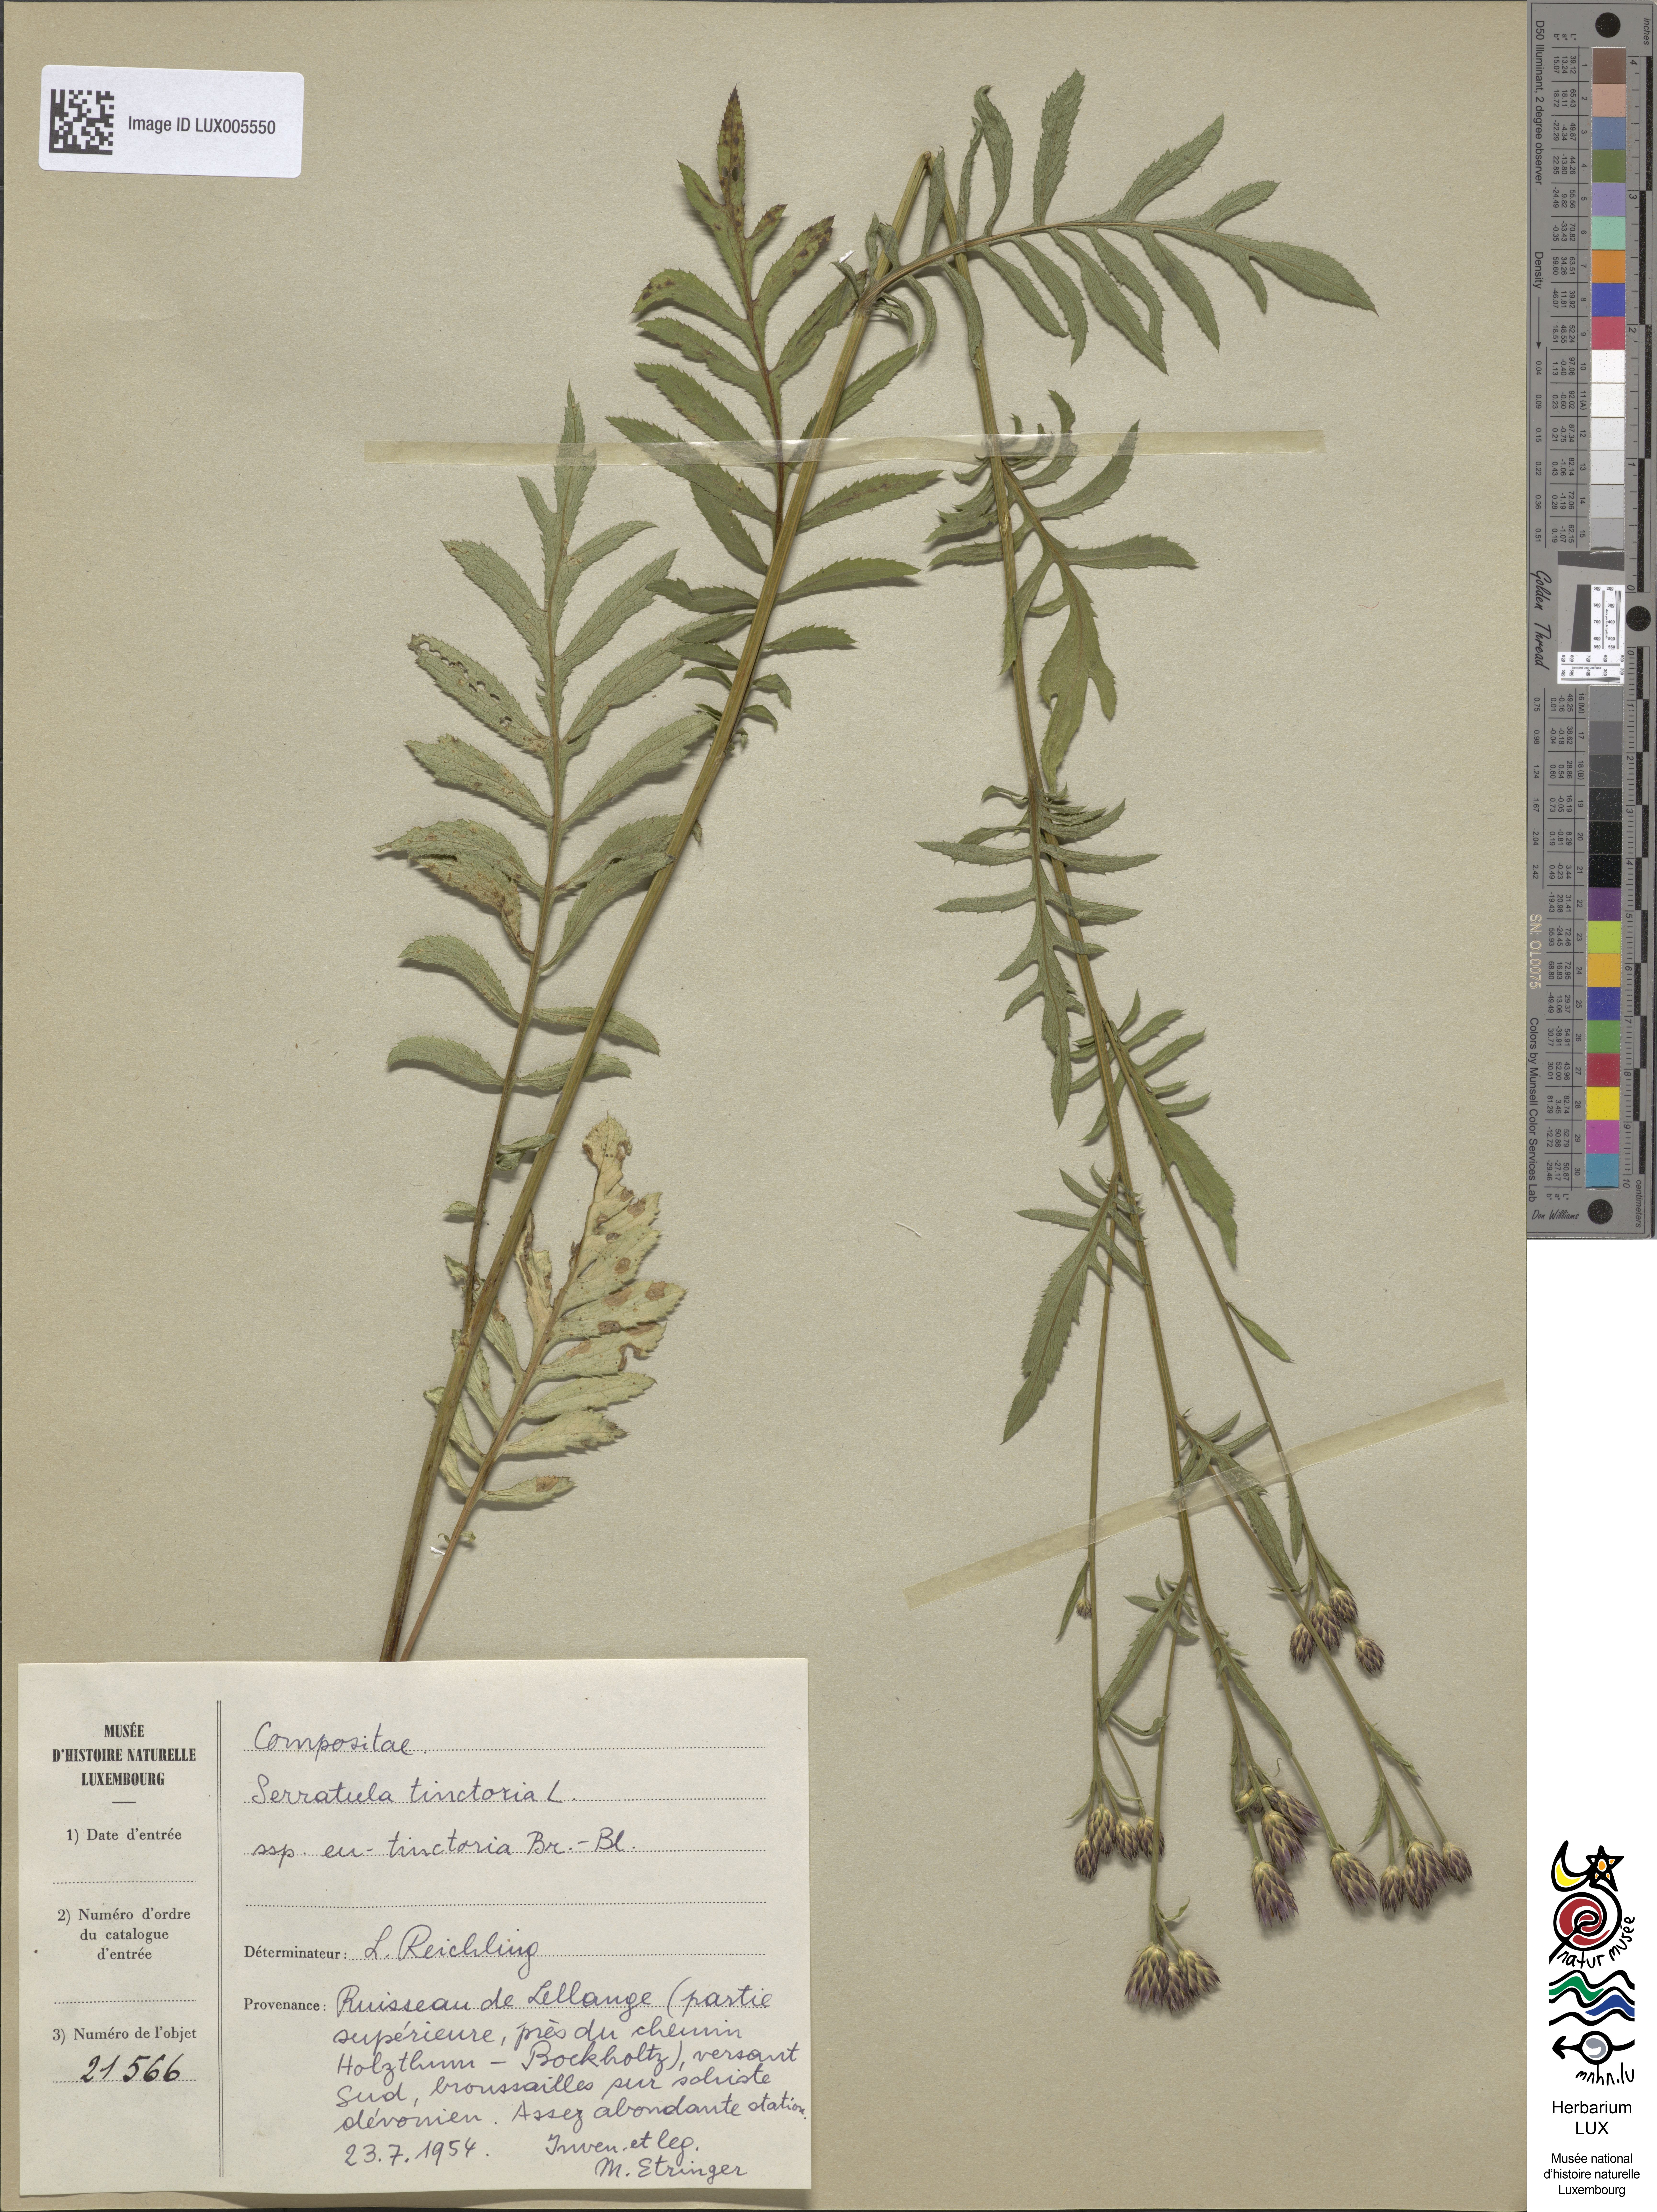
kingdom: Plantae
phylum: Tracheophyta
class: Magnoliopsida
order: Asterales
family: Asteraceae
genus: Serratula
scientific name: Serratula tinctoria
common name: Saw-wort
